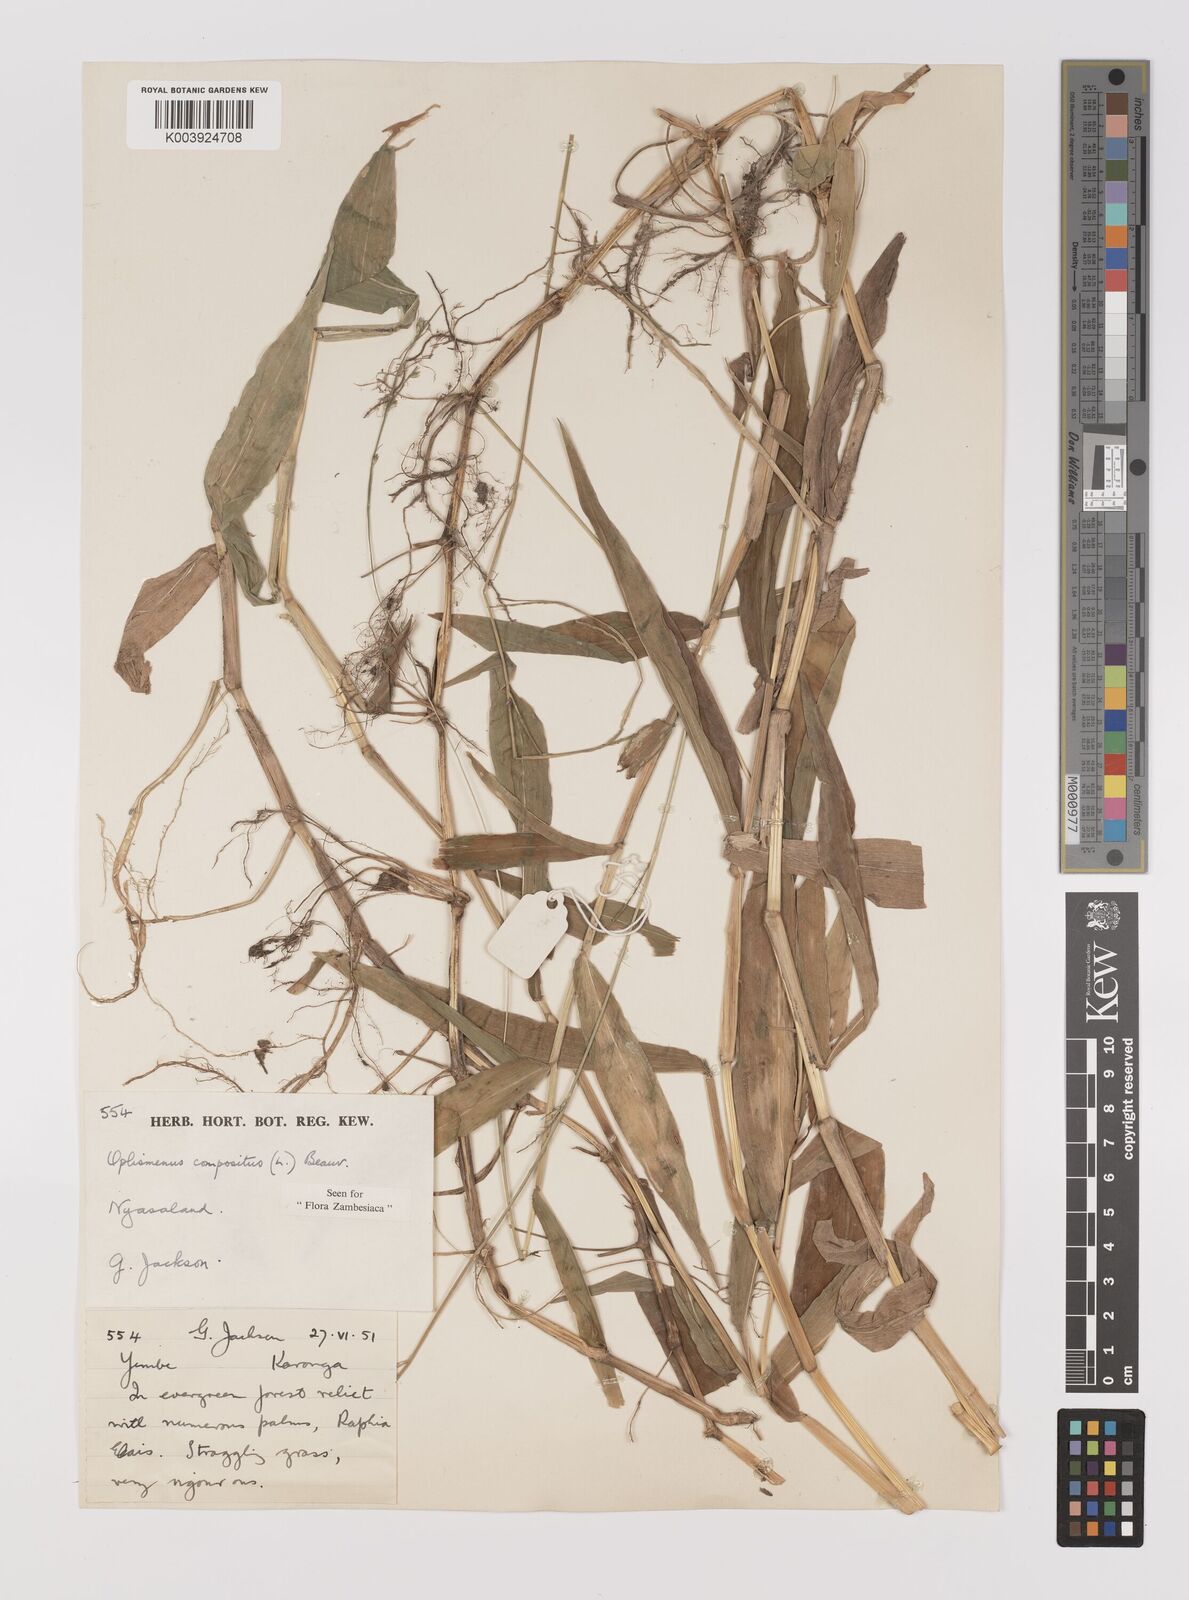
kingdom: Plantae
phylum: Tracheophyta
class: Liliopsida
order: Poales
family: Poaceae
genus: Oplismenus
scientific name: Oplismenus compositus
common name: Running mountain grass
